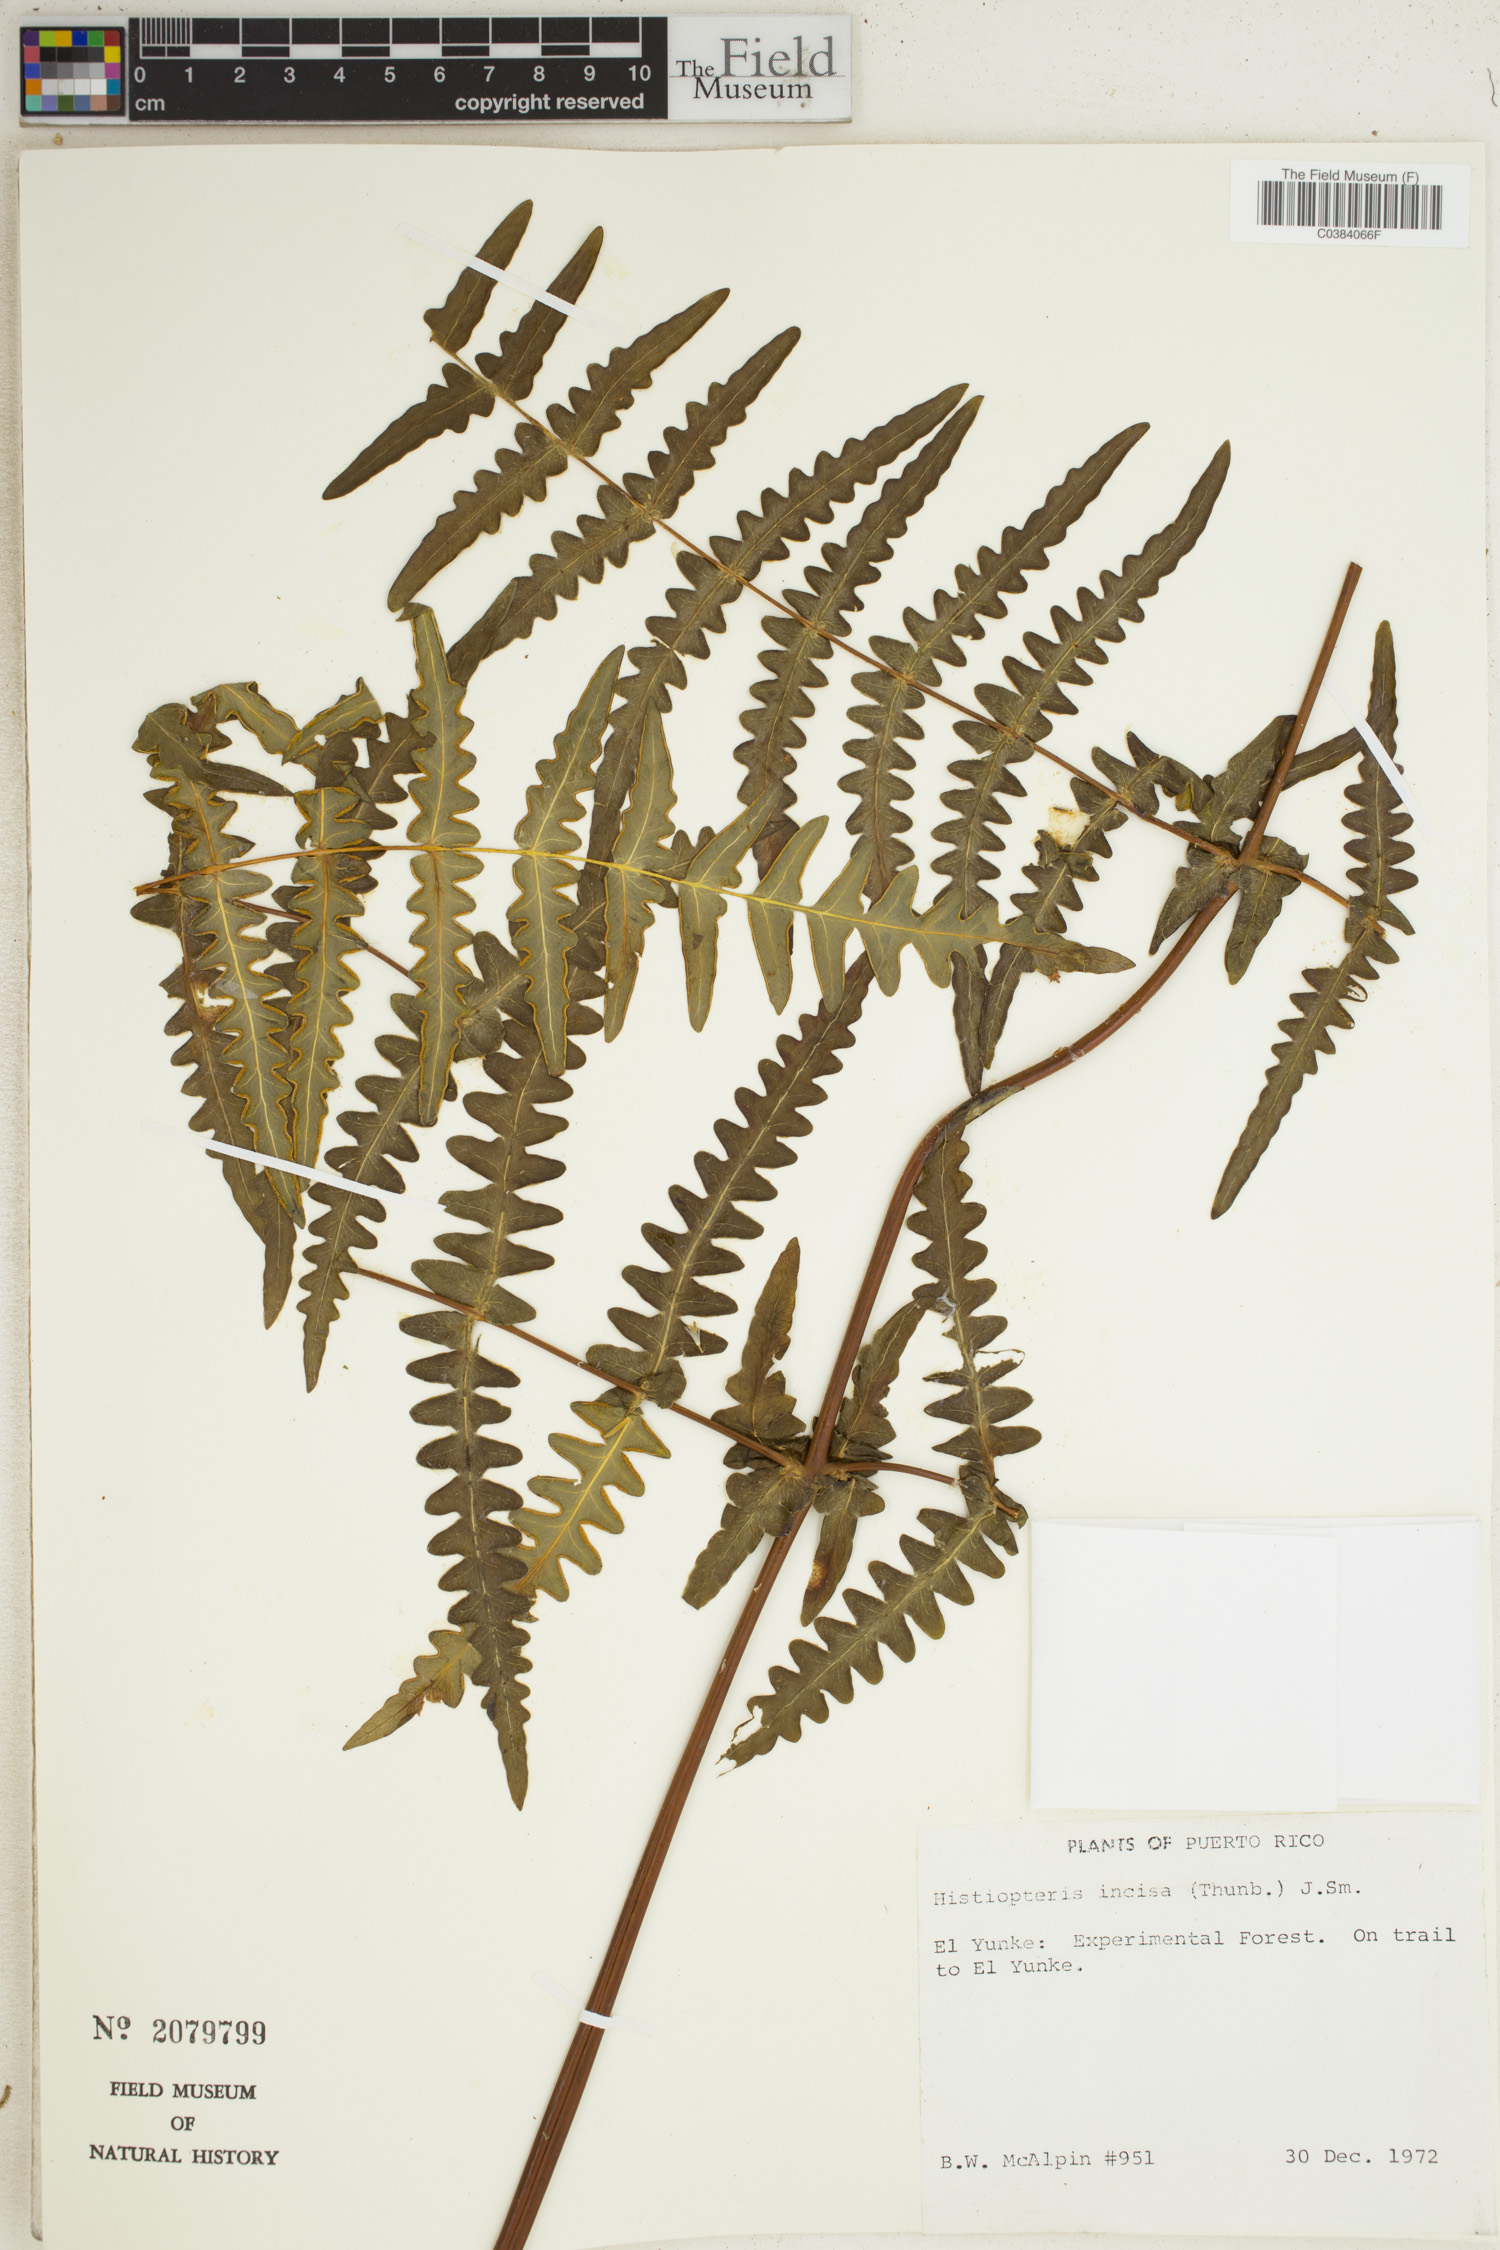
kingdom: Plantae
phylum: Tracheophyta
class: Polypodiopsida
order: Polypodiales
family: Dennstaedtiaceae
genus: Histiopteris
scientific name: Histiopteris incisa
